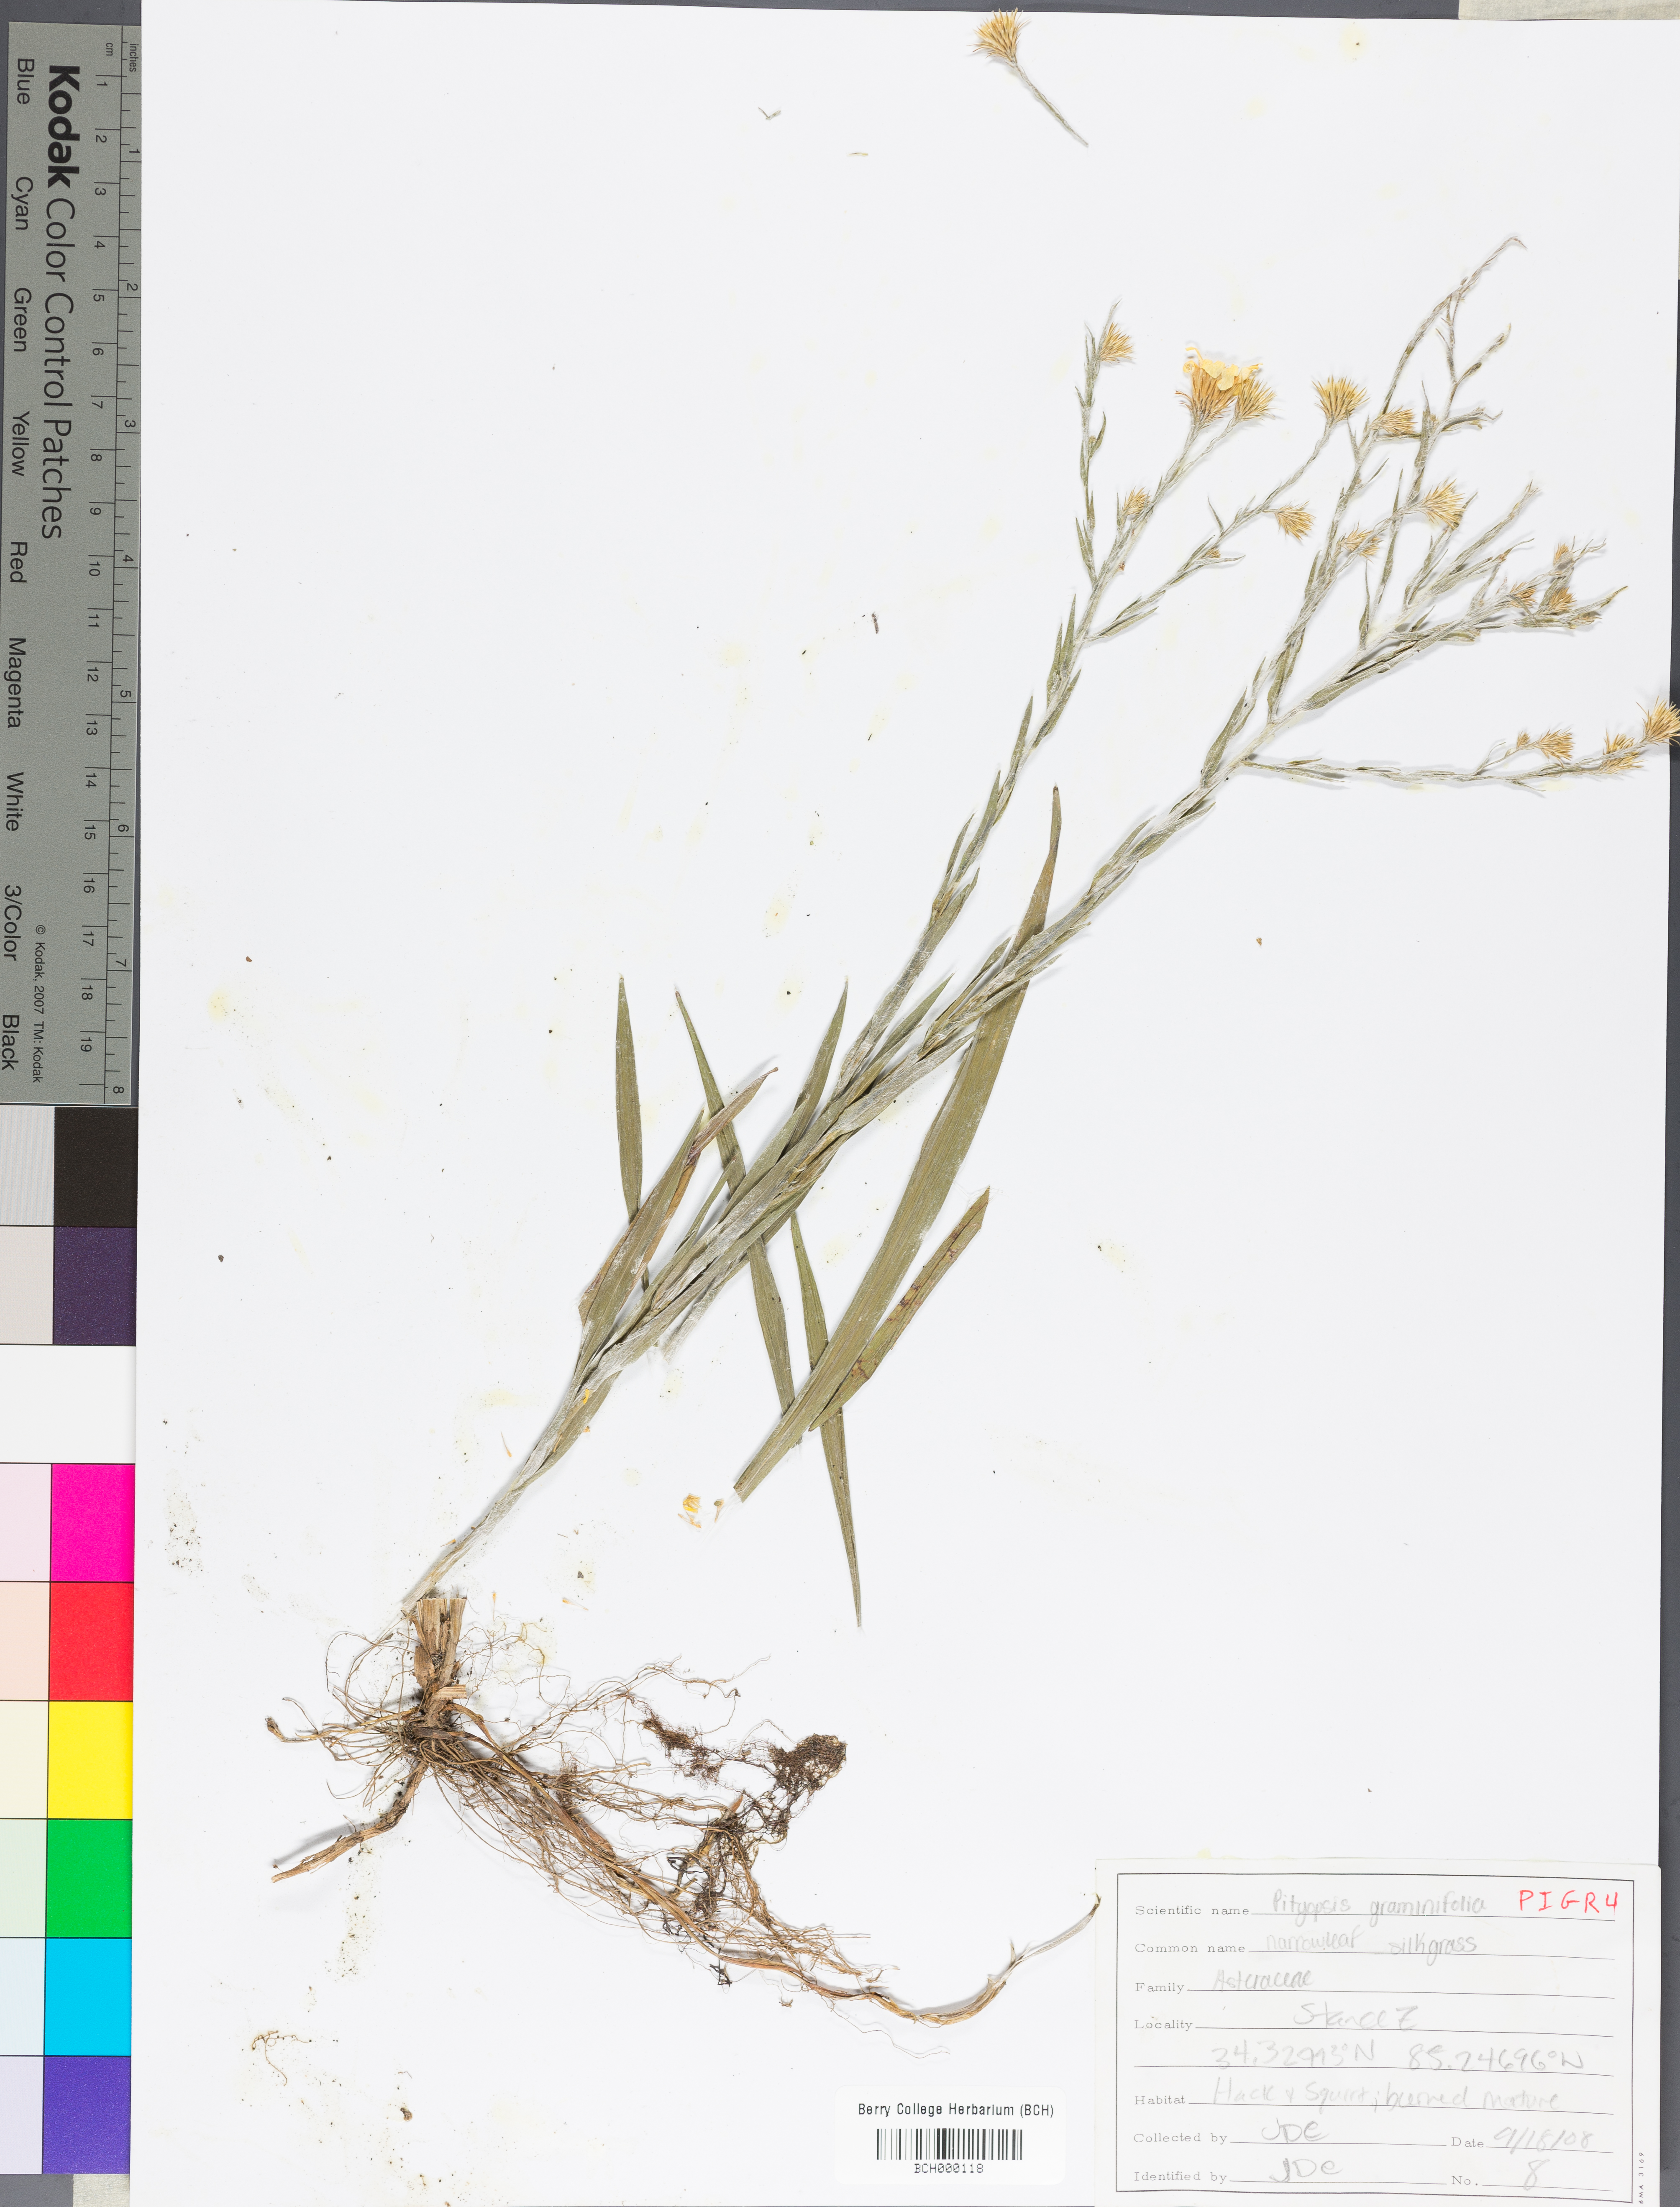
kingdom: Plantae
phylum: Tracheophyta
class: Magnoliopsida
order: Asterales
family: Asteraceae
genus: Pityopsis
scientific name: Pityopsis graminifolia
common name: Grass-leaf golden-aster
